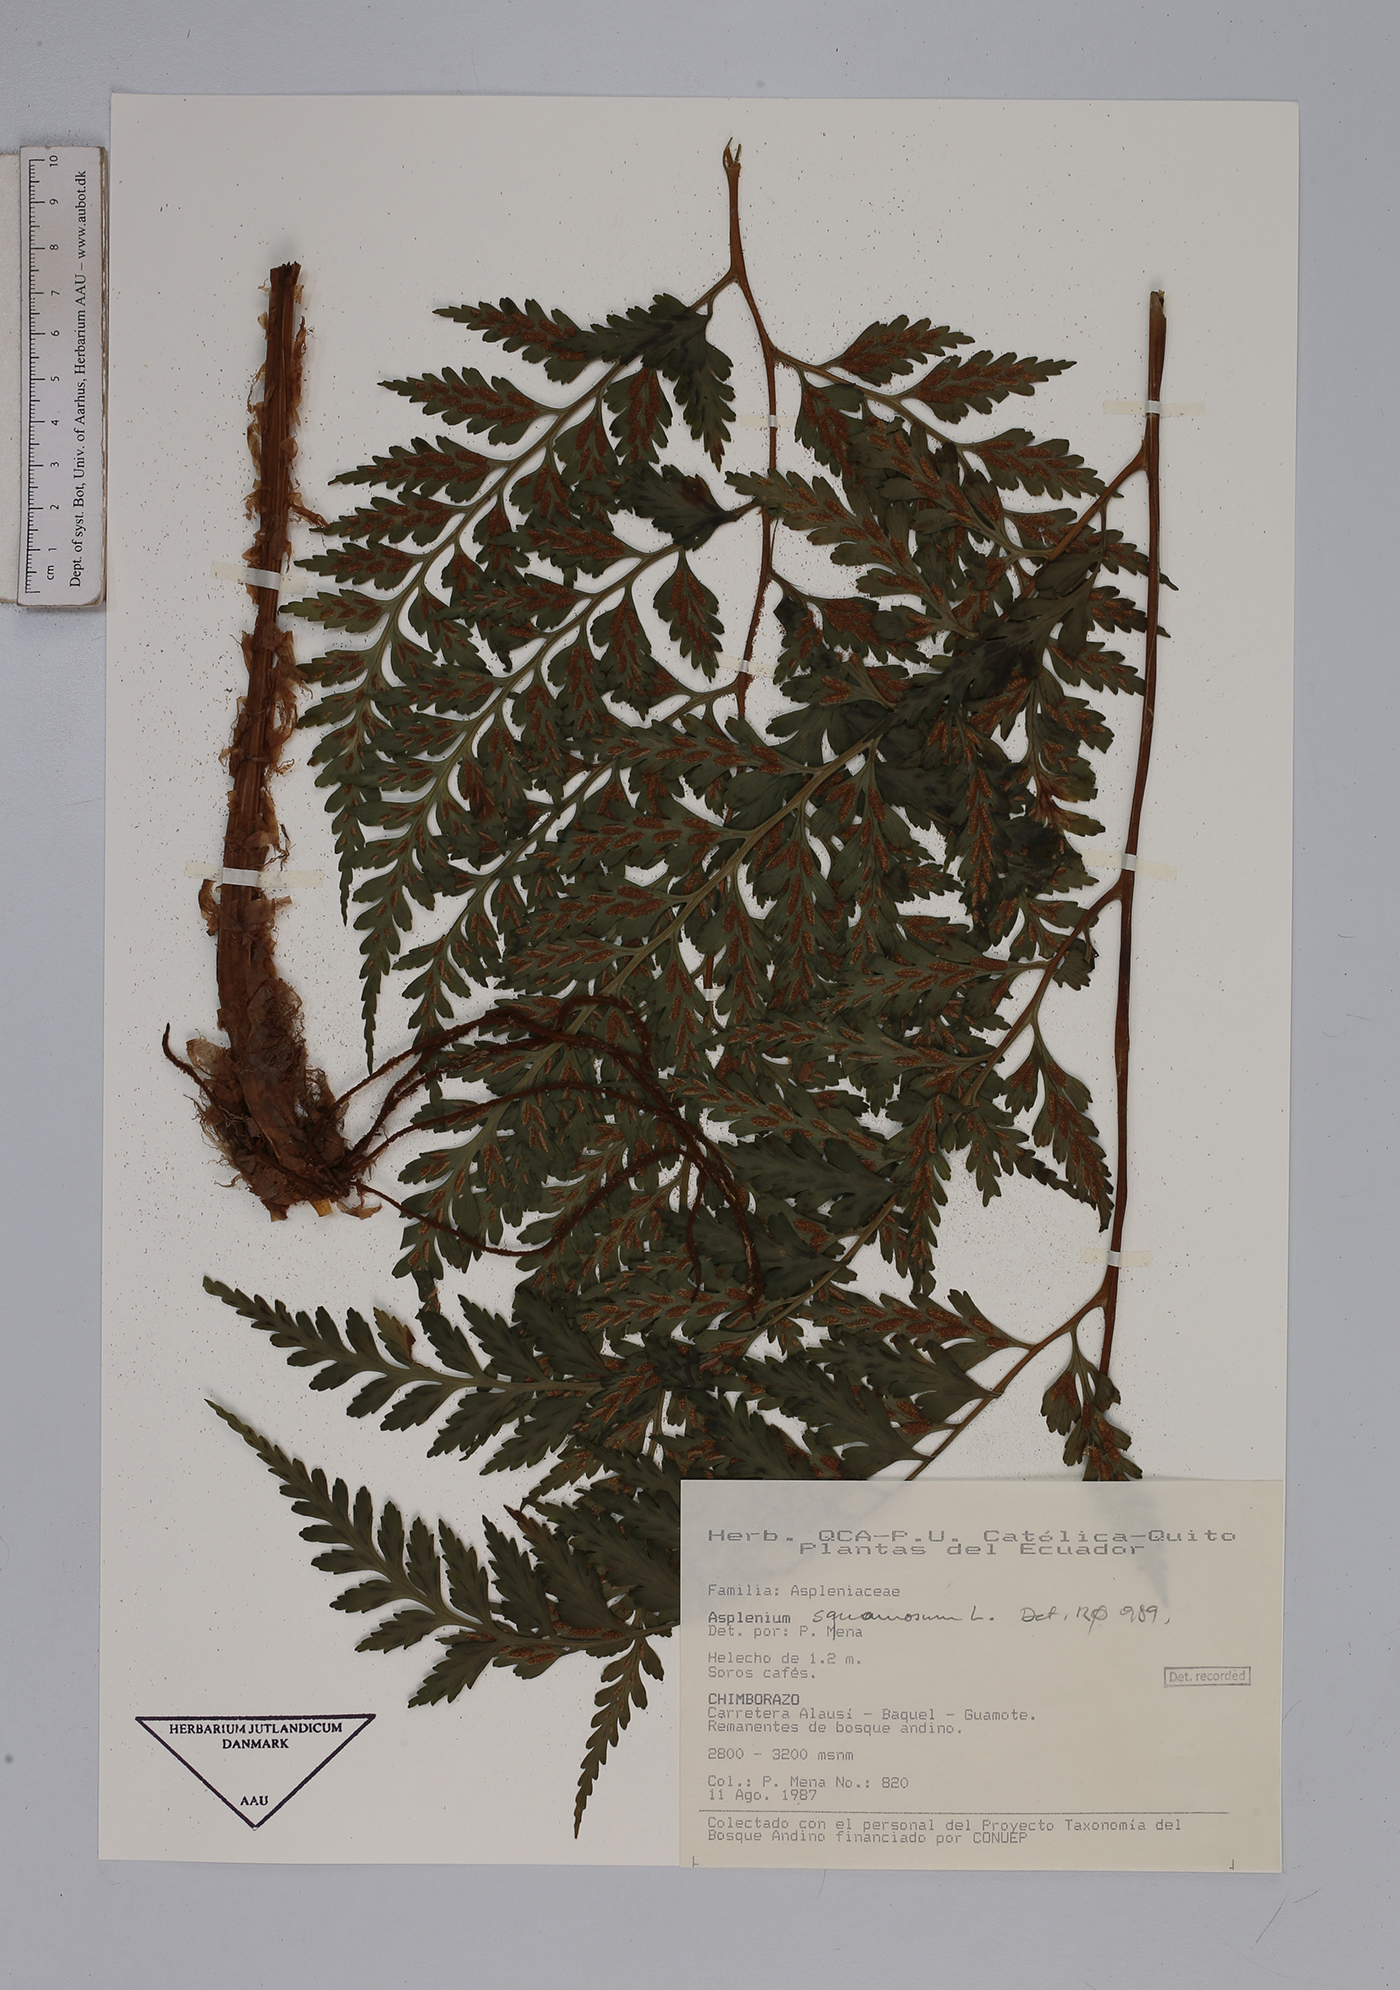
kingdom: Plantae
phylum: Tracheophyta
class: Polypodiopsida
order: Polypodiales
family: Aspleniaceae
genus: Asplenium
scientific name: Asplenium squamosum
